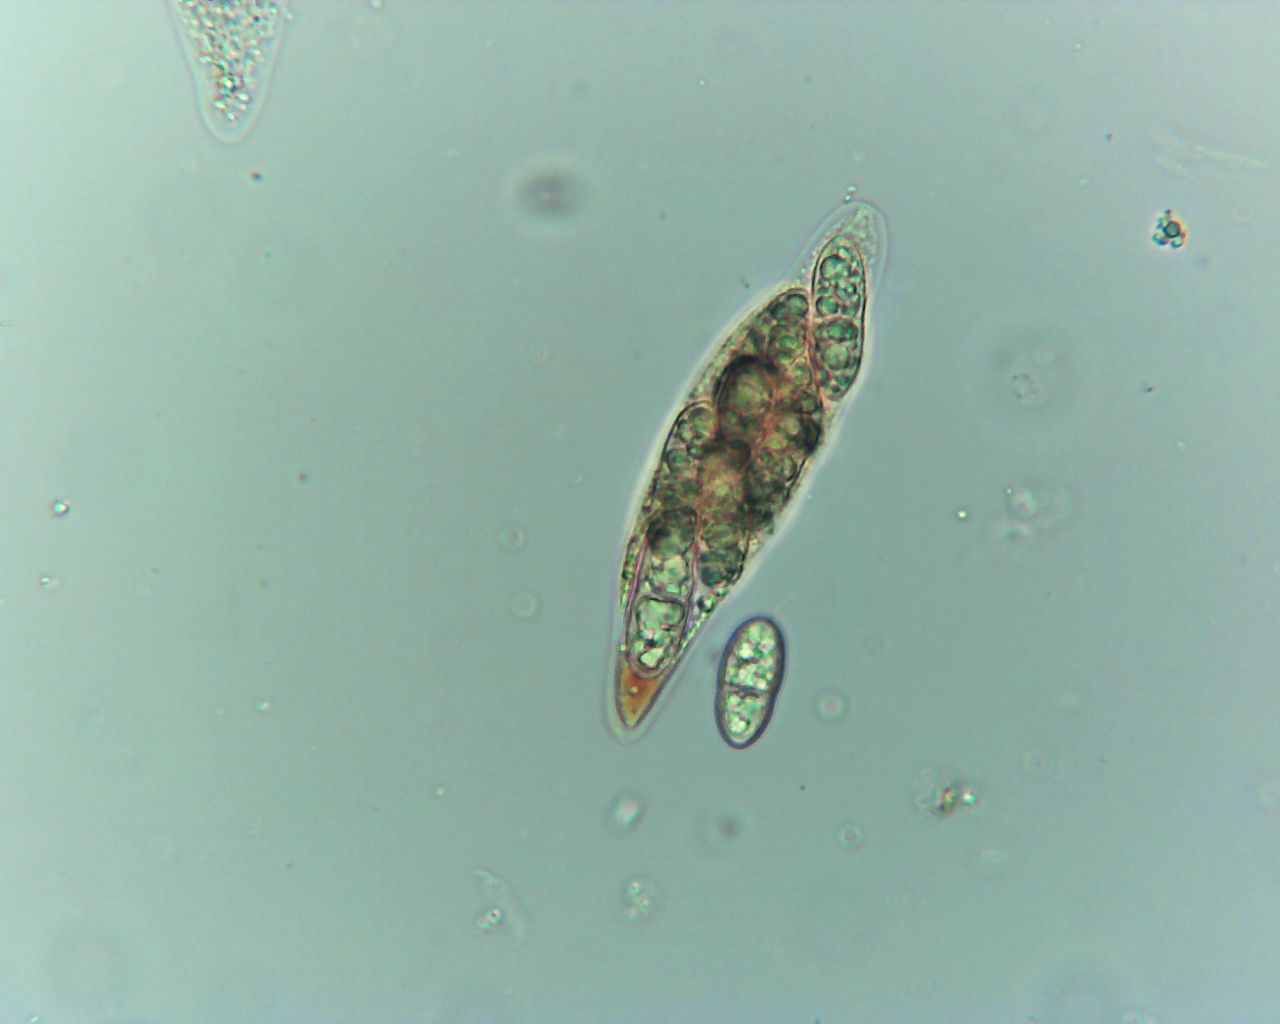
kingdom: Fungi
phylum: Ascomycota
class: Sordariomycetes
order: Diaporthales
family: Melanconidaceae
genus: Pseudovalsella
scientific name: Pseudovalsella thelebola
